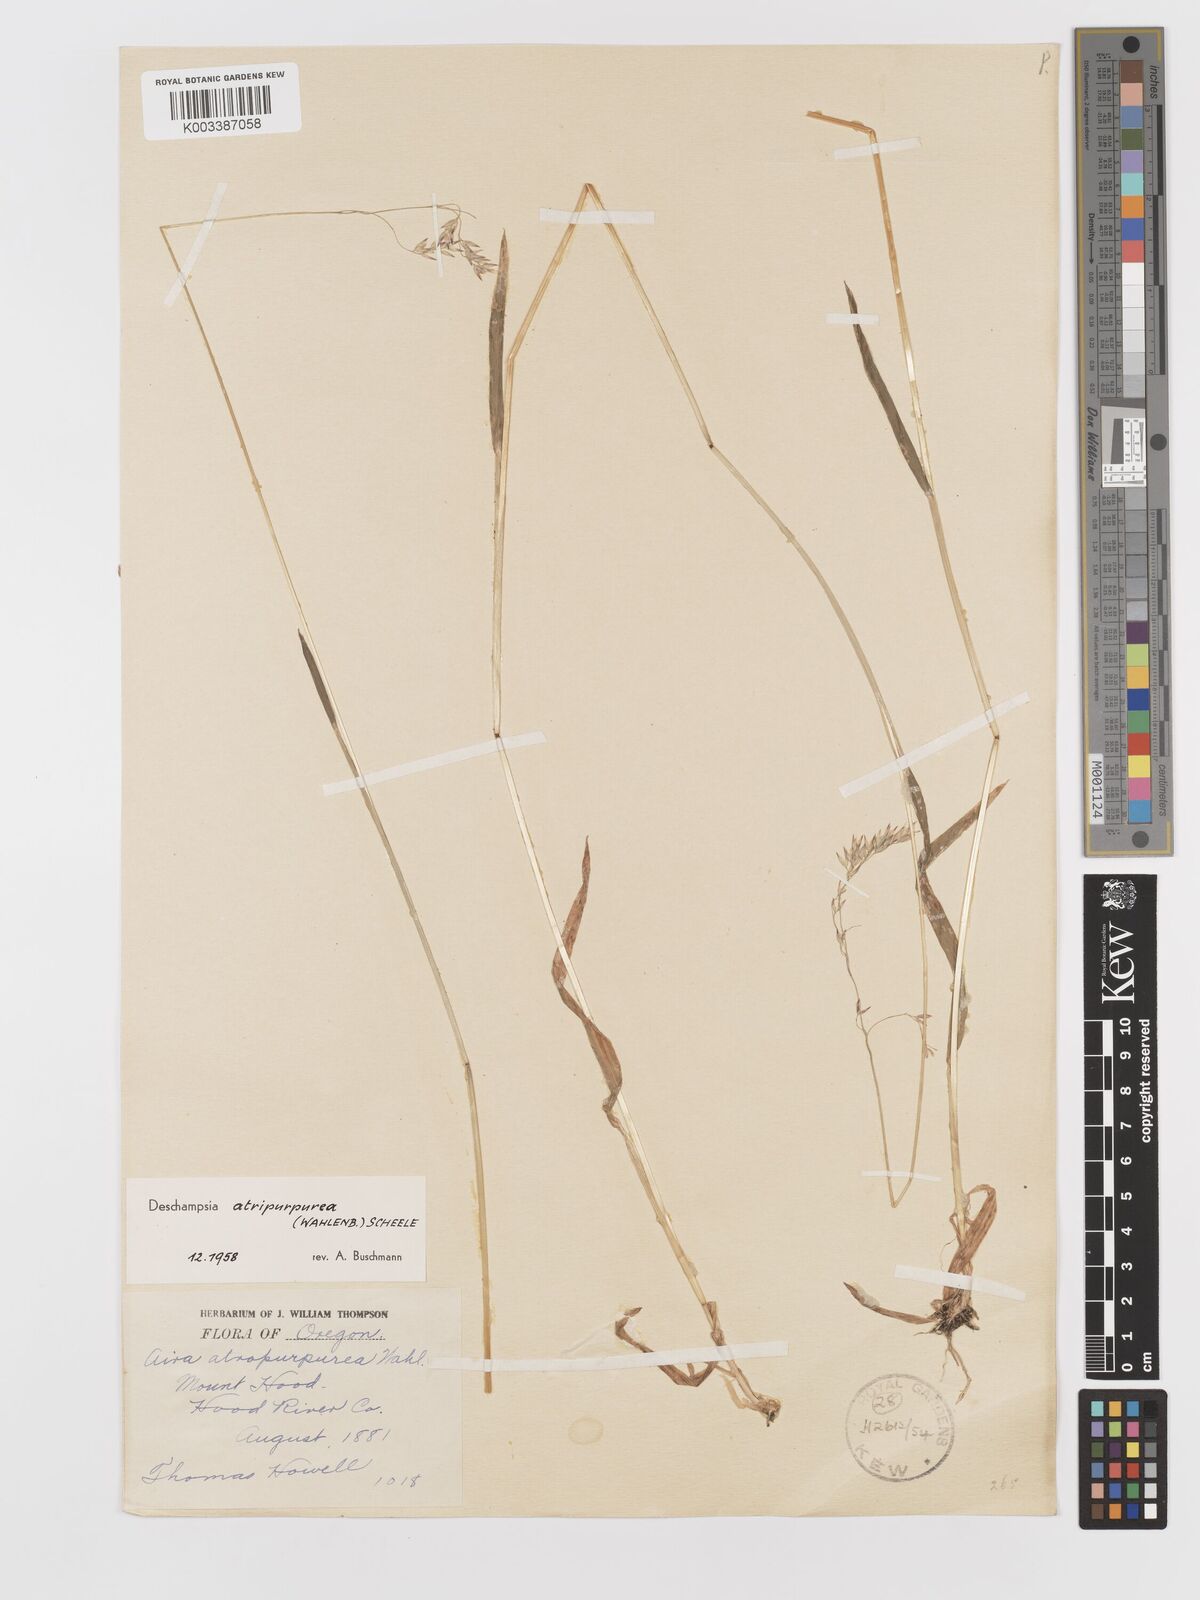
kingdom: Plantae
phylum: Tracheophyta
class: Liliopsida
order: Poales
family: Poaceae
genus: Vahlodea
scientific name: Vahlodea atropurpurea
